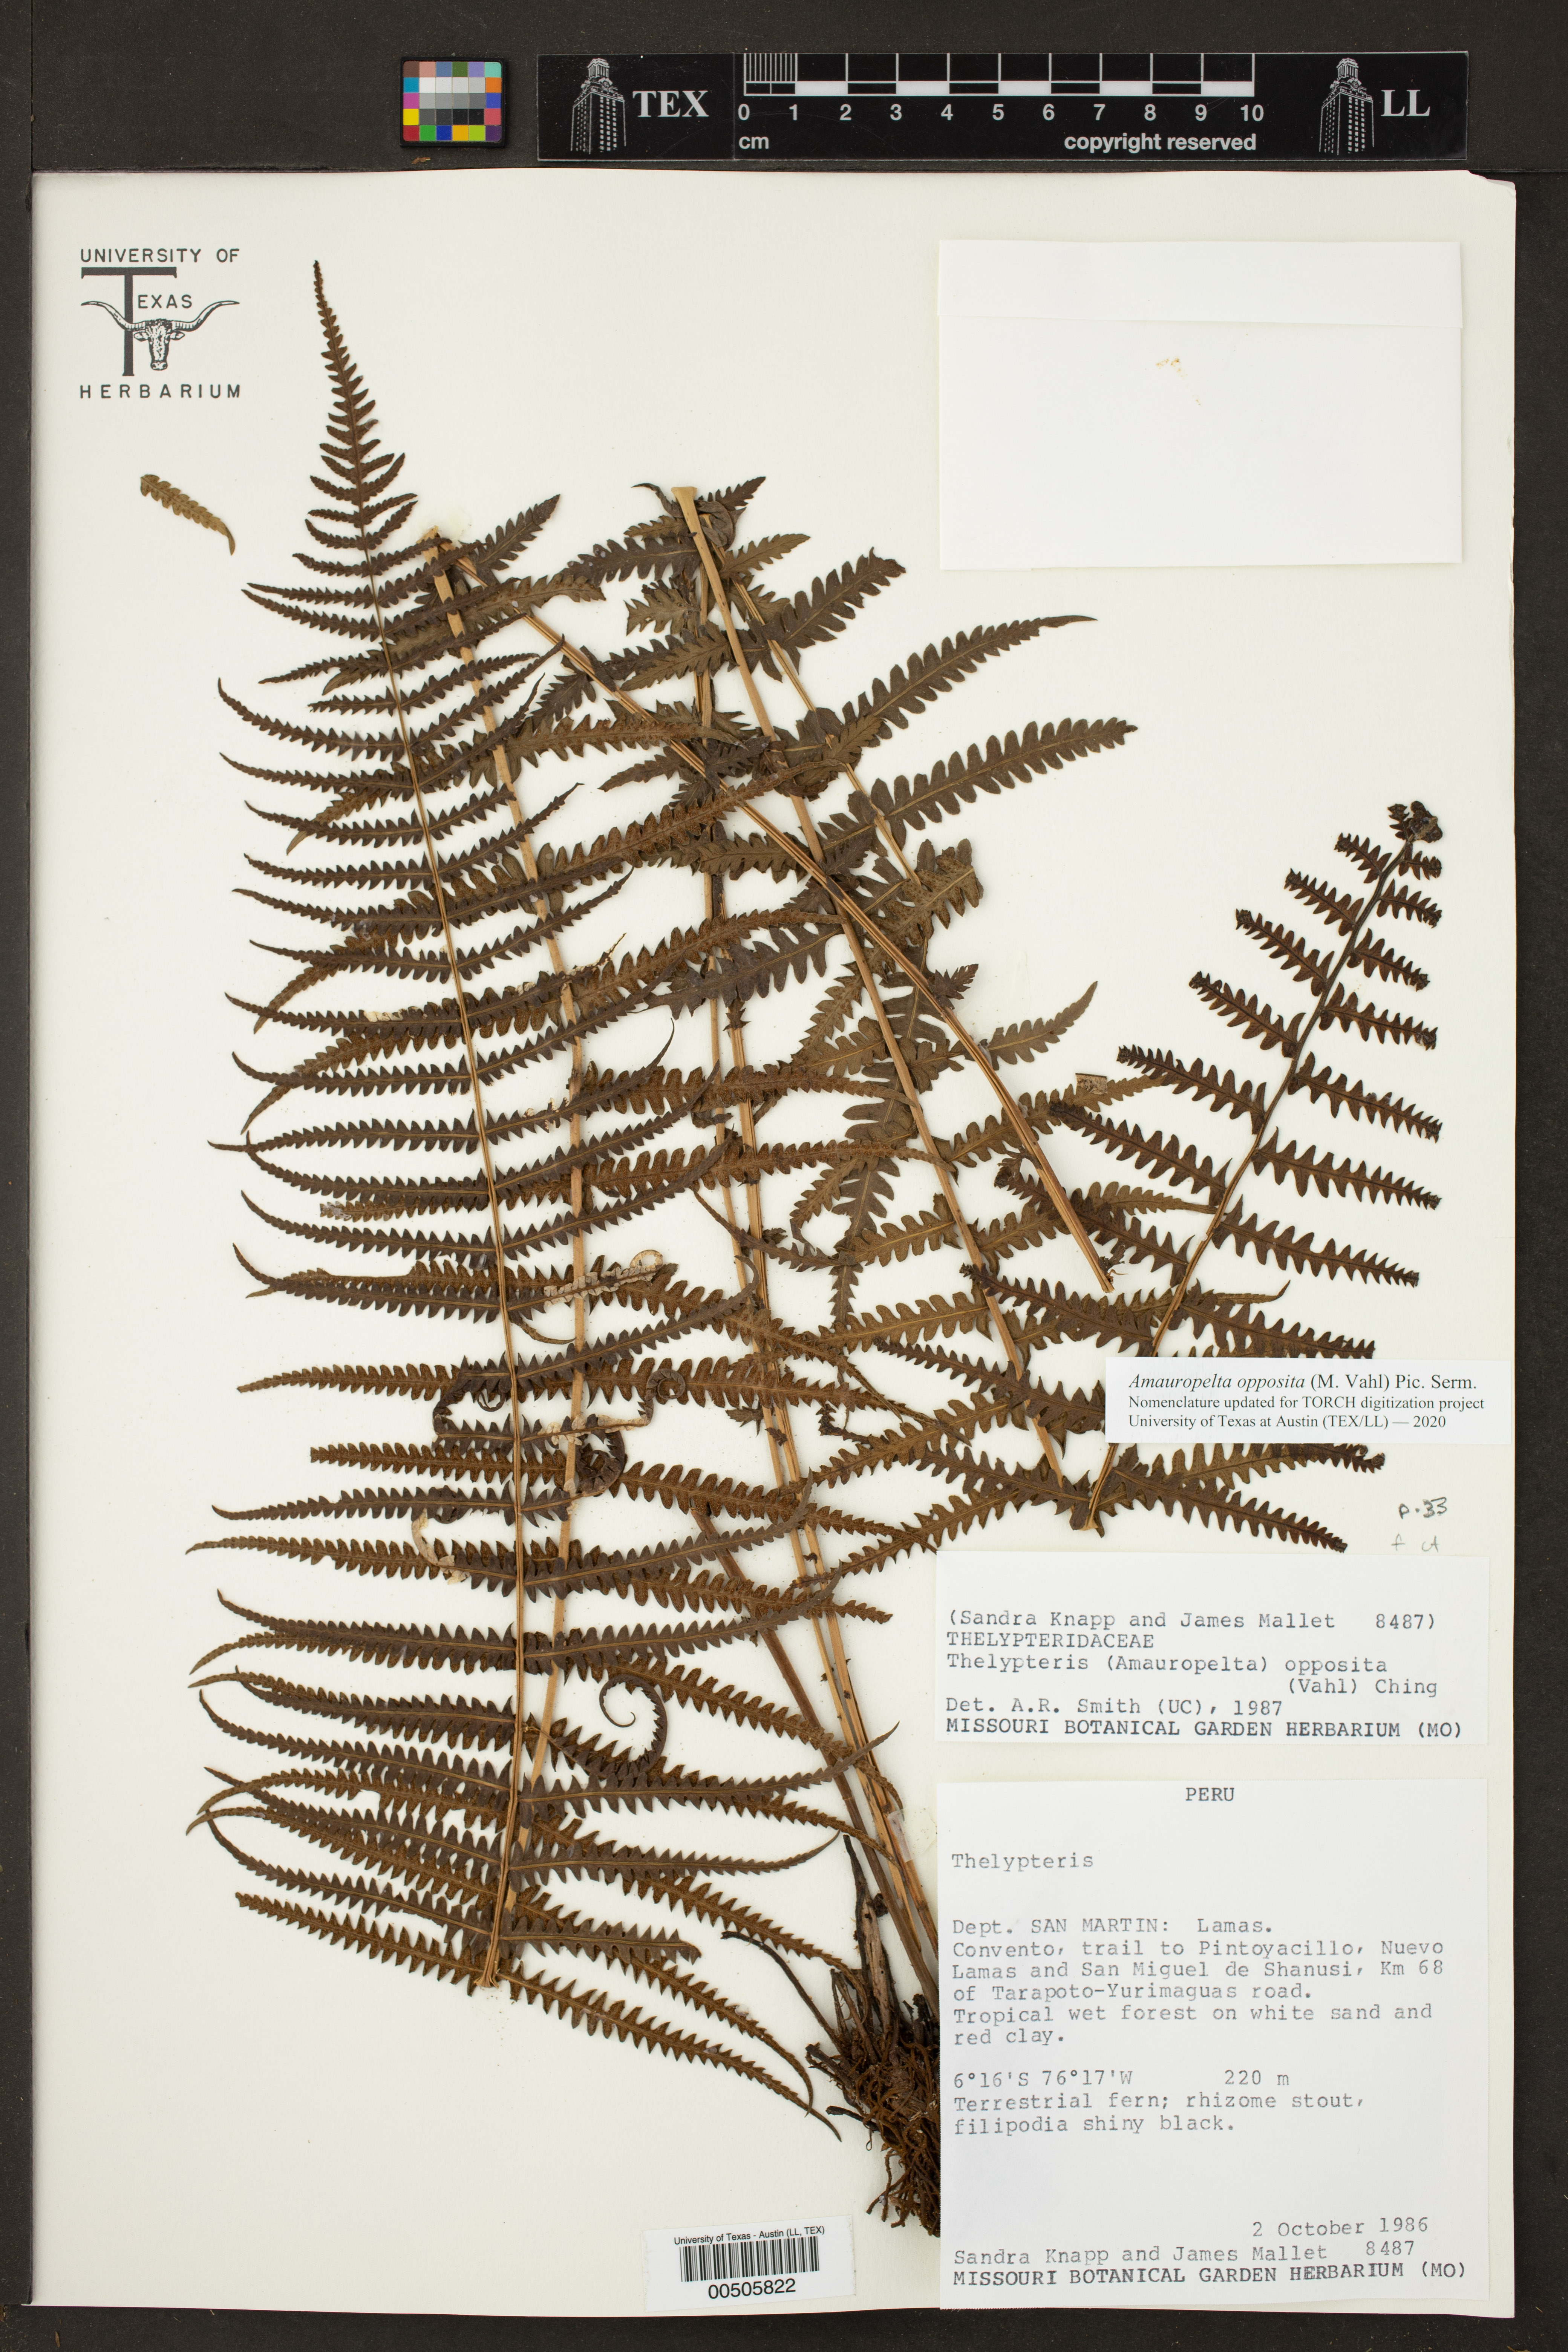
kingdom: Plantae
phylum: Tracheophyta
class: Polypodiopsida
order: Polypodiales
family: Thelypteridaceae
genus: Amauropelta
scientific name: Amauropelta opposita
